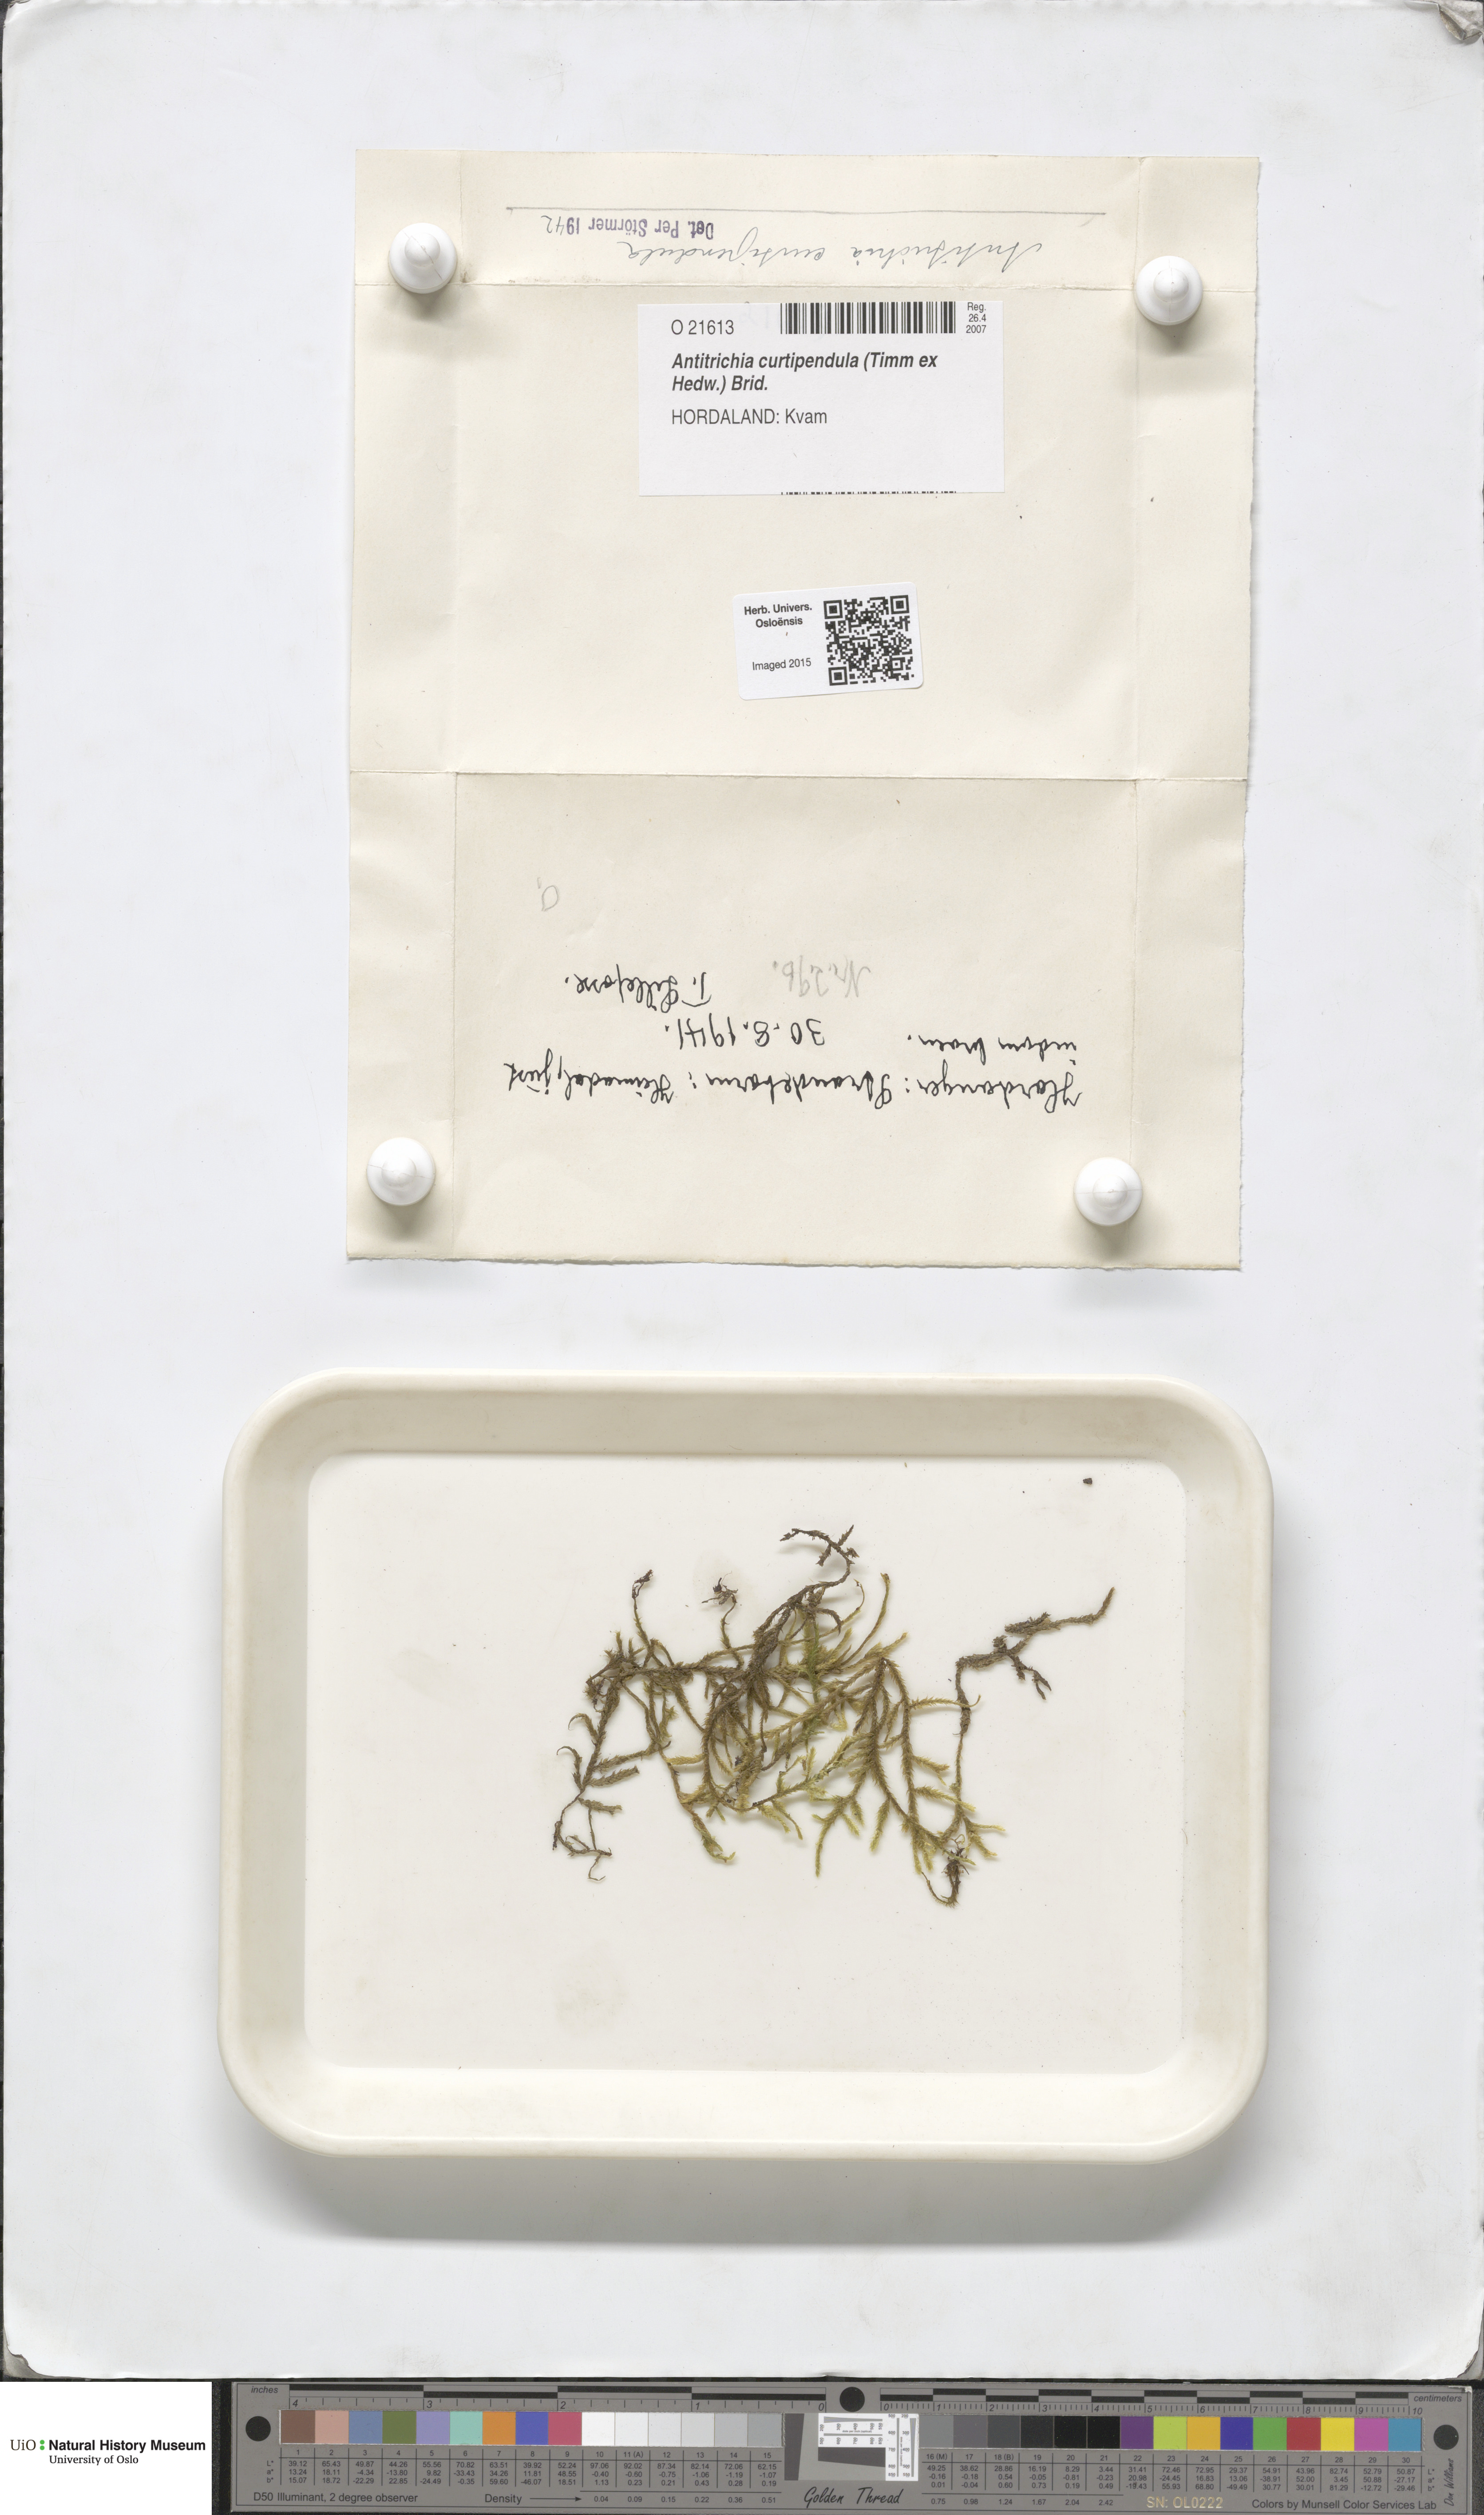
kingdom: Plantae
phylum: Bryophyta
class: Bryopsida
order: Hypnales
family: Antitrichiaceae
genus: Antitrichia
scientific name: Antitrichia curtipendula
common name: Pendulous wing-moss
